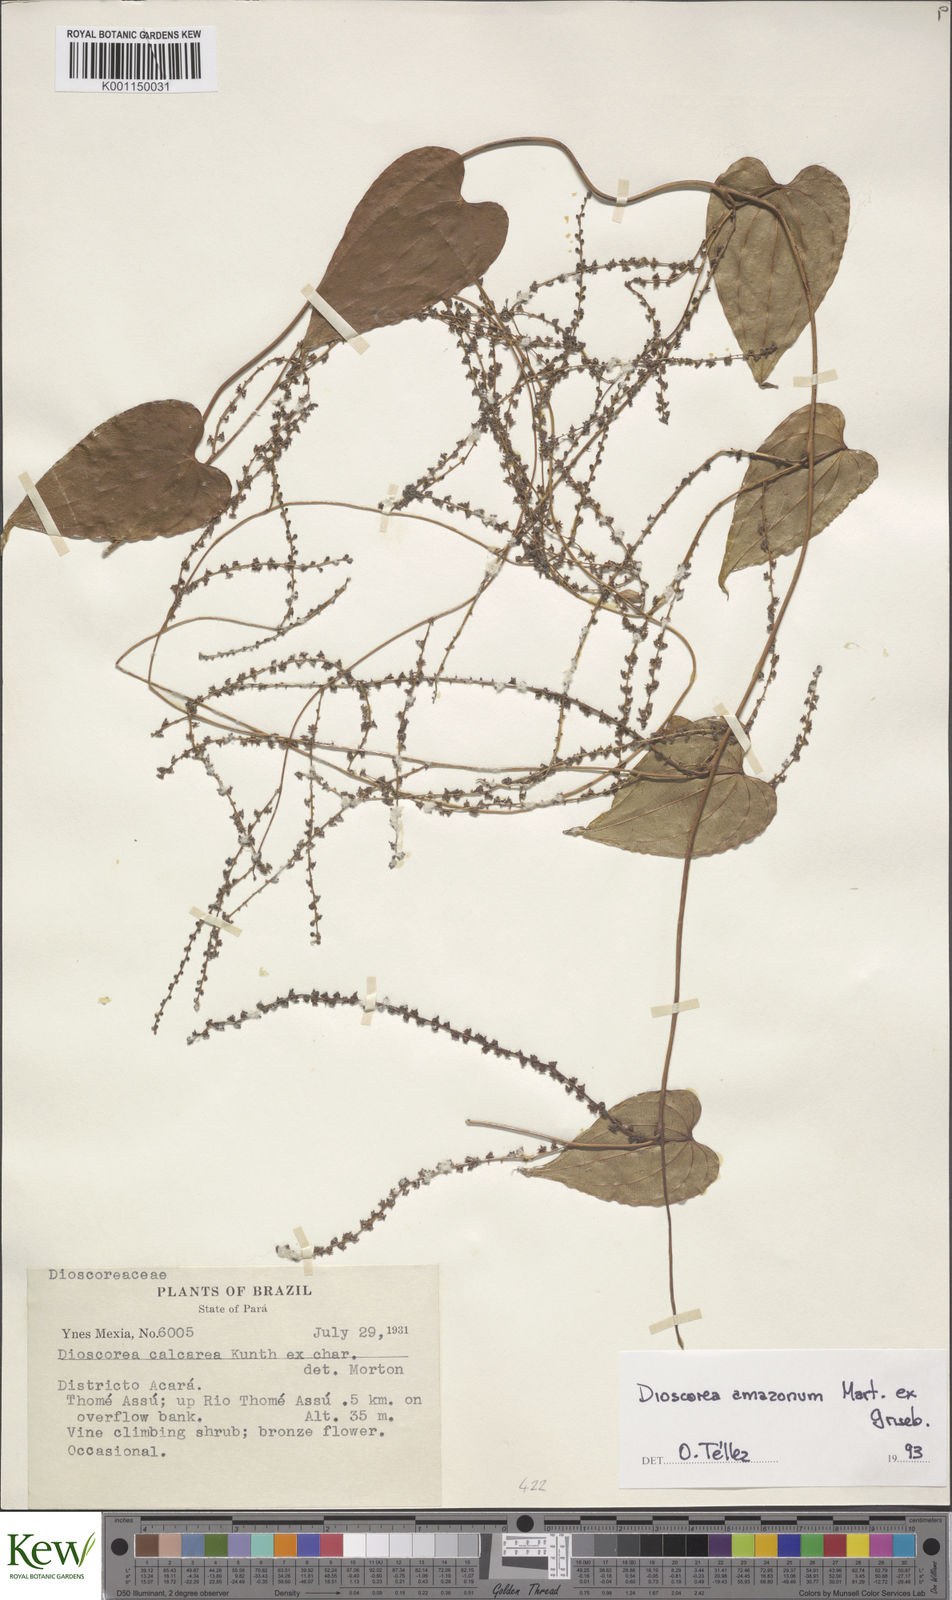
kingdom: Plantae
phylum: Tracheophyta
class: Liliopsida
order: Dioscoreales
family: Dioscoreaceae
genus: Dioscorea
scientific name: Dioscorea amazonum
